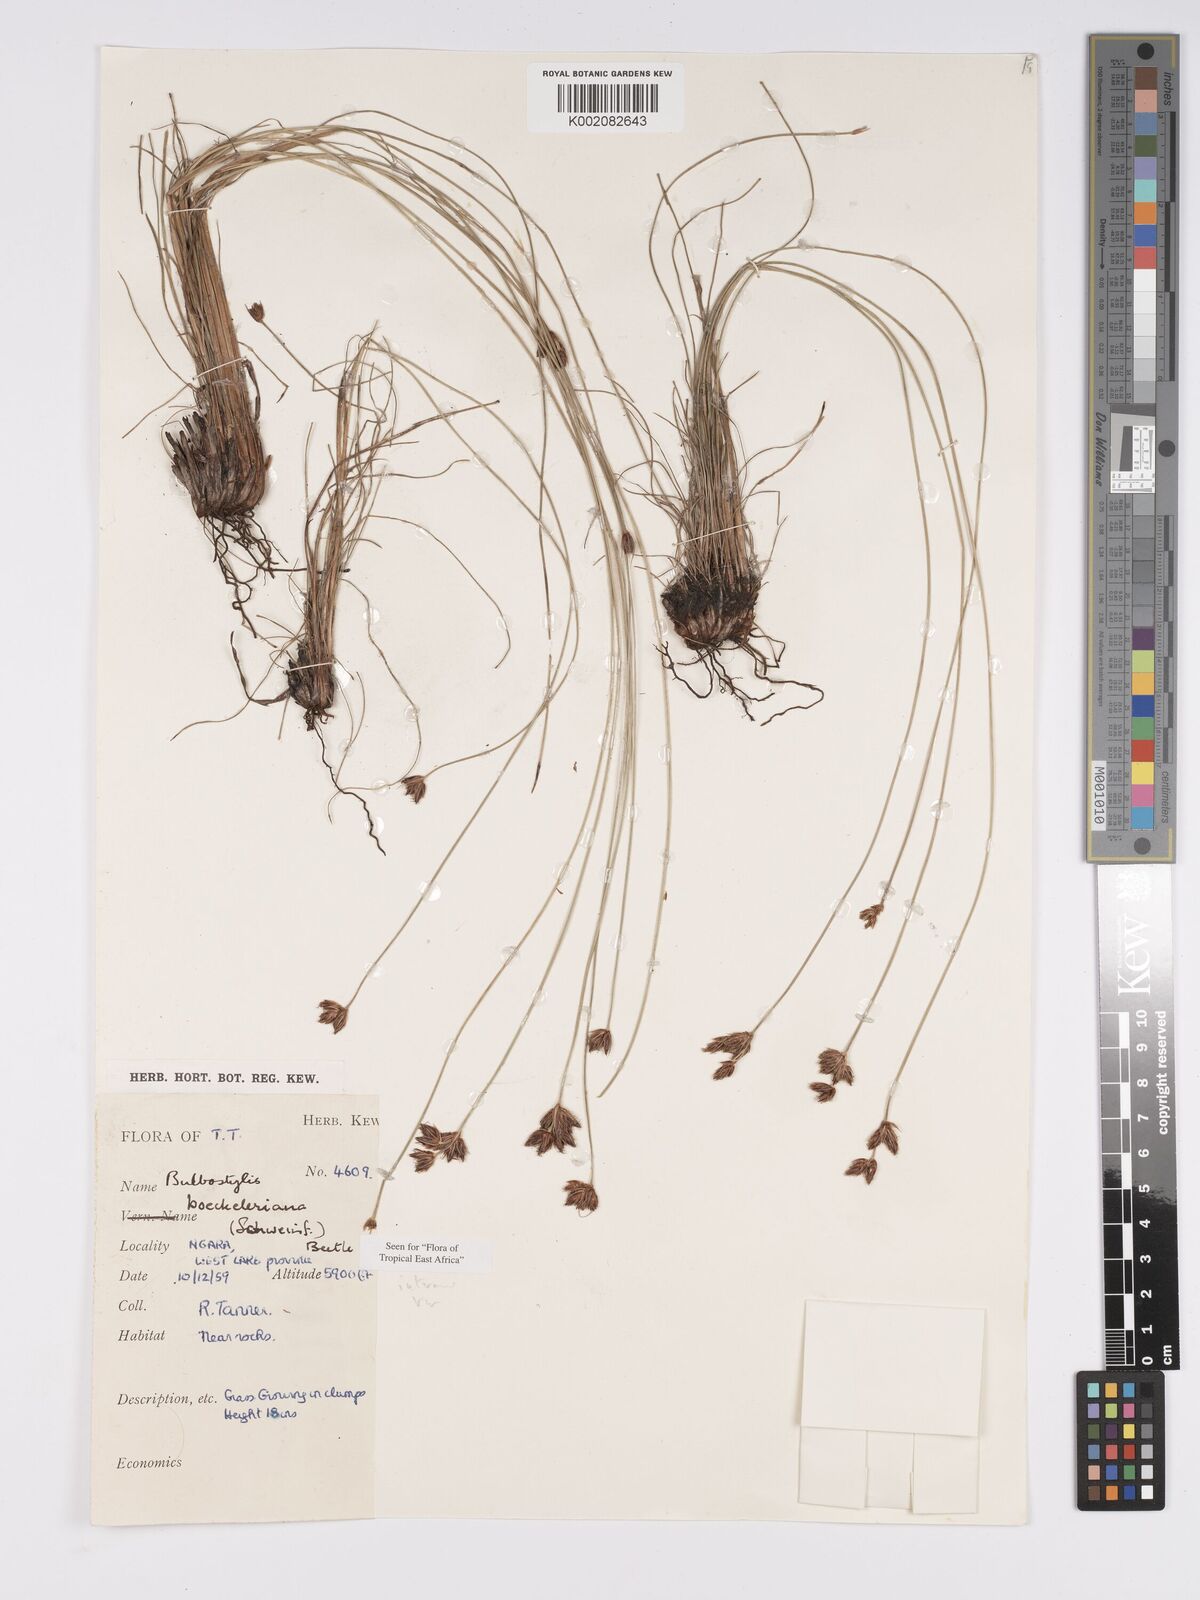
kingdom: Plantae
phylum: Tracheophyta
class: Liliopsida
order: Poales
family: Cyperaceae
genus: Bulbostylis
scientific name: Bulbostylis boeckeleriana
